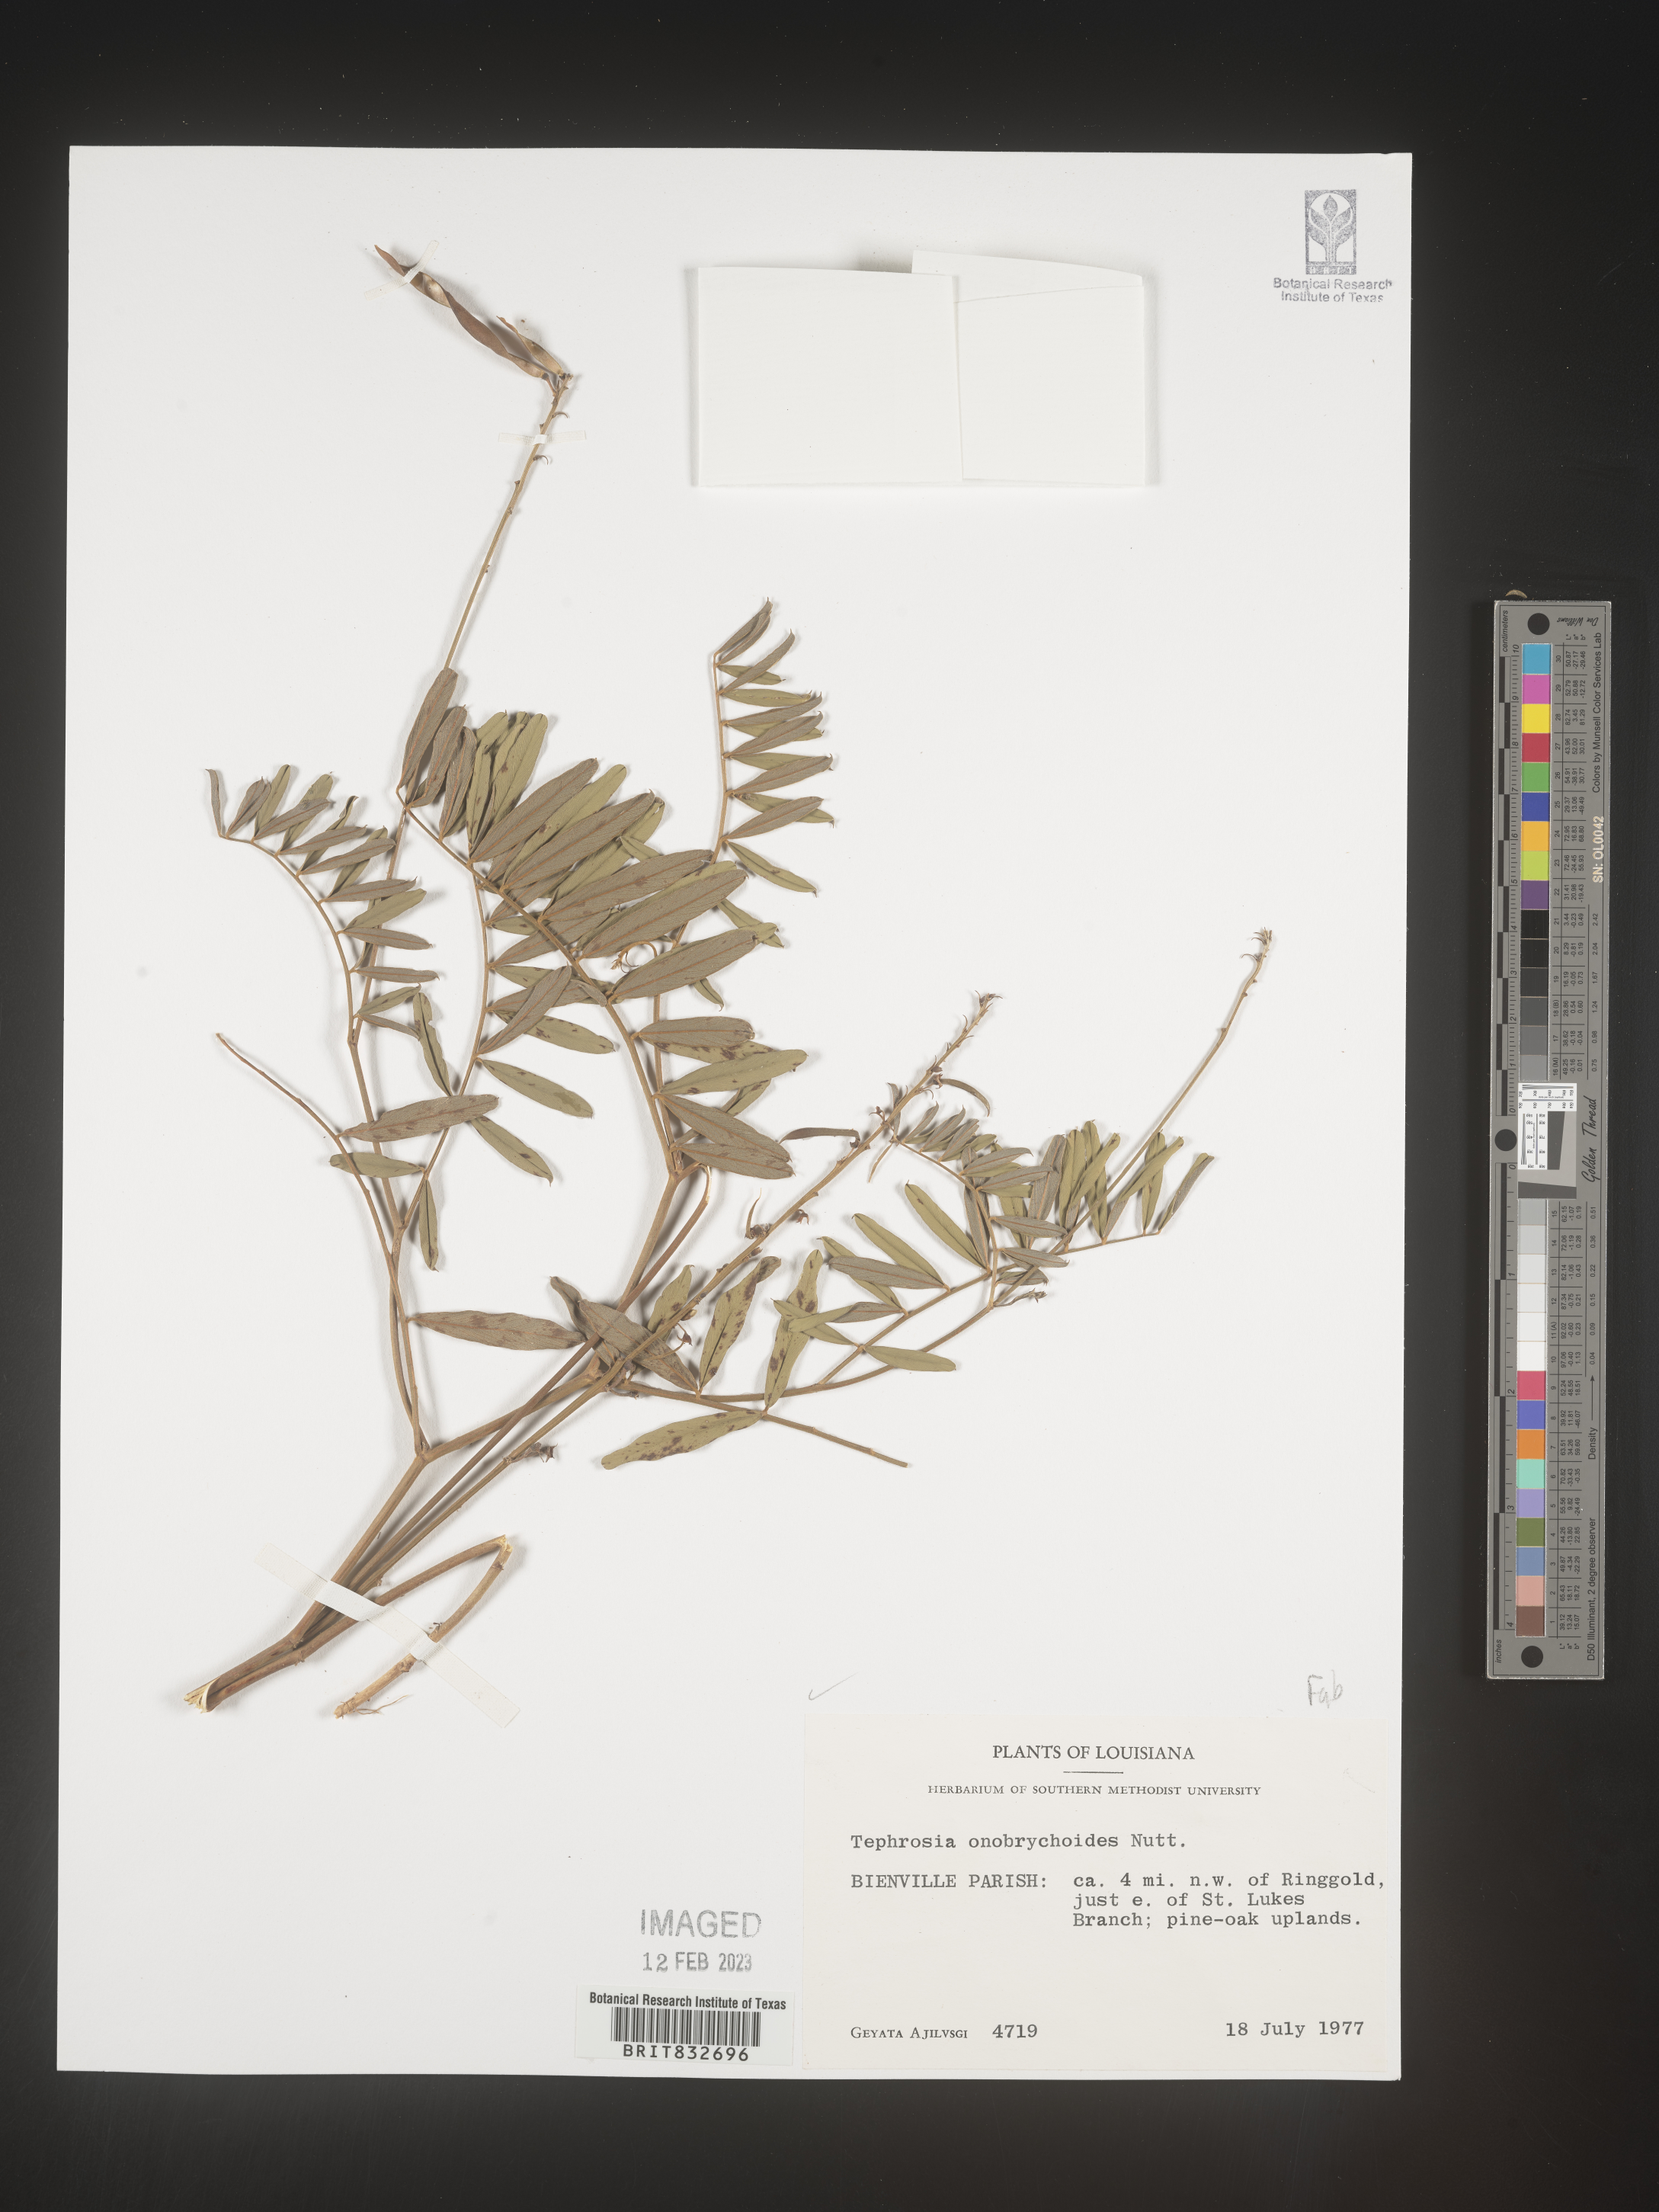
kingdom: Plantae
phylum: Tracheophyta
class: Magnoliopsida
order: Fabales
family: Fabaceae
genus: Tephrosia
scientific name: Tephrosia onobrychoides
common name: Multi-bloom hoary-pea
